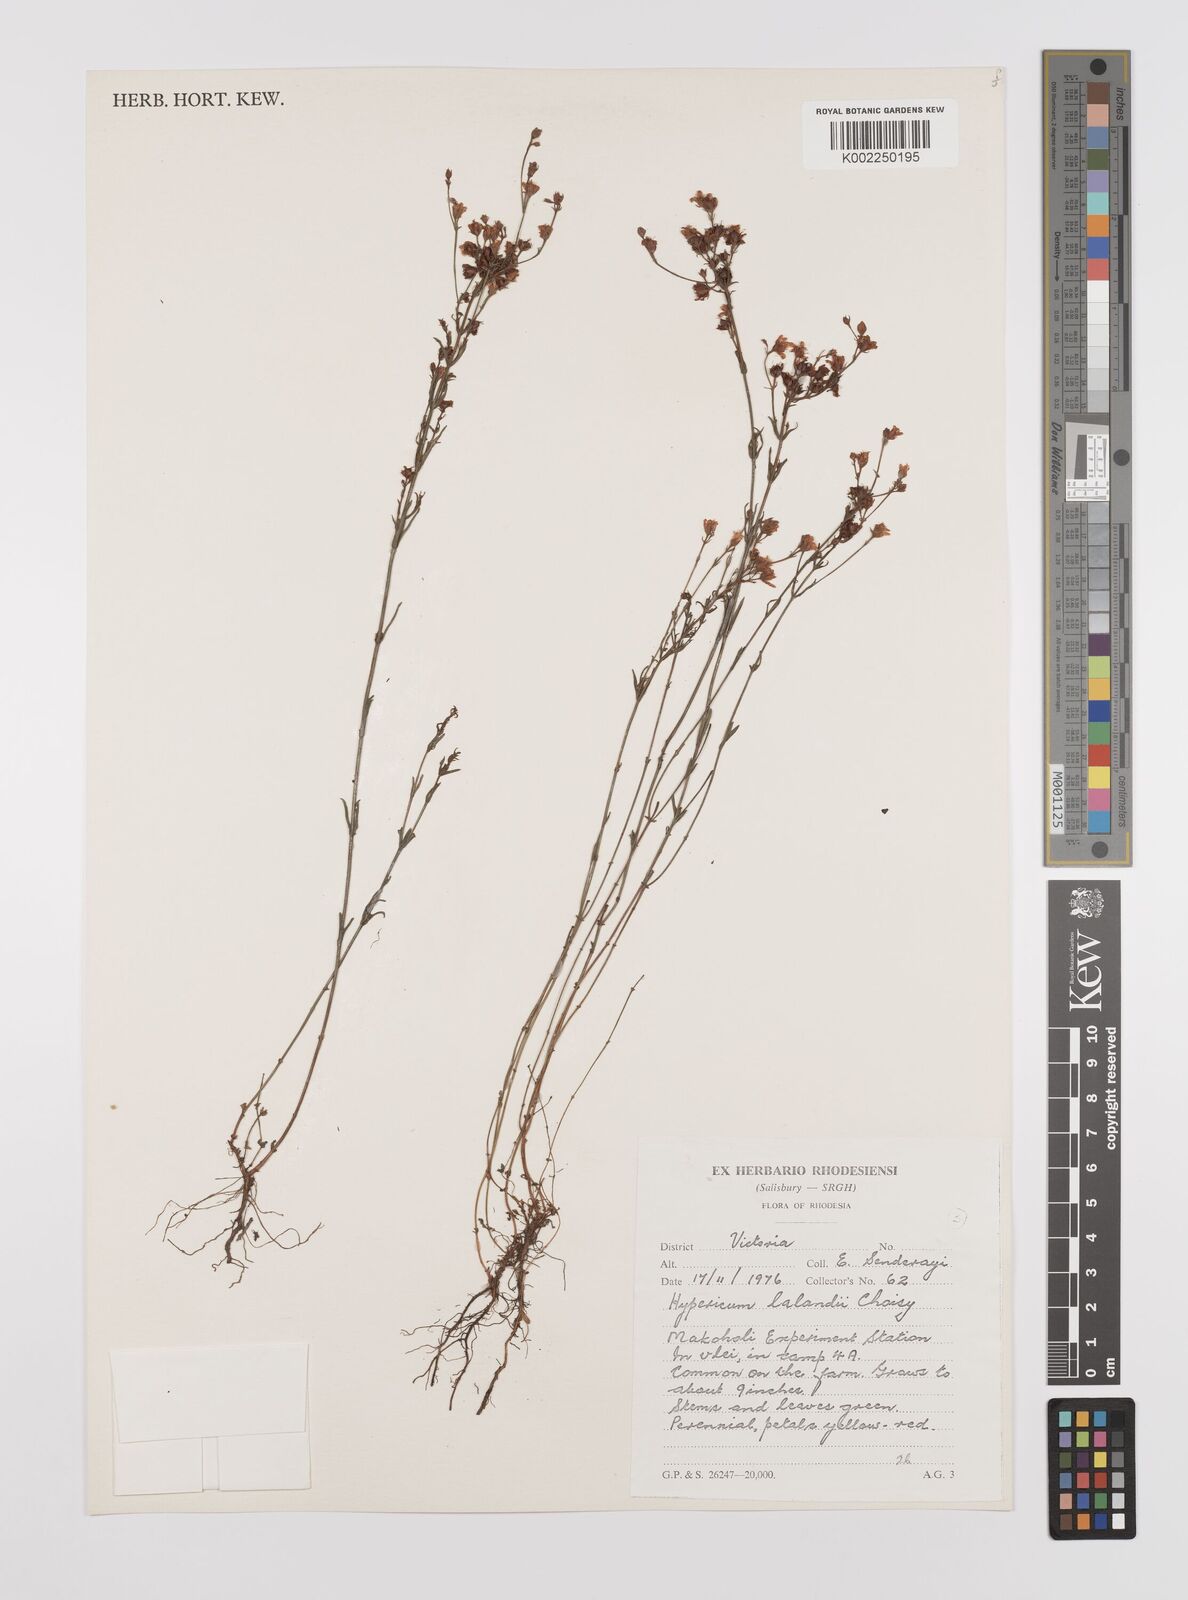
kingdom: Plantae
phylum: Tracheophyta
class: Magnoliopsida
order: Malpighiales
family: Hypericaceae
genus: Hypericum
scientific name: Hypericum lalandii
